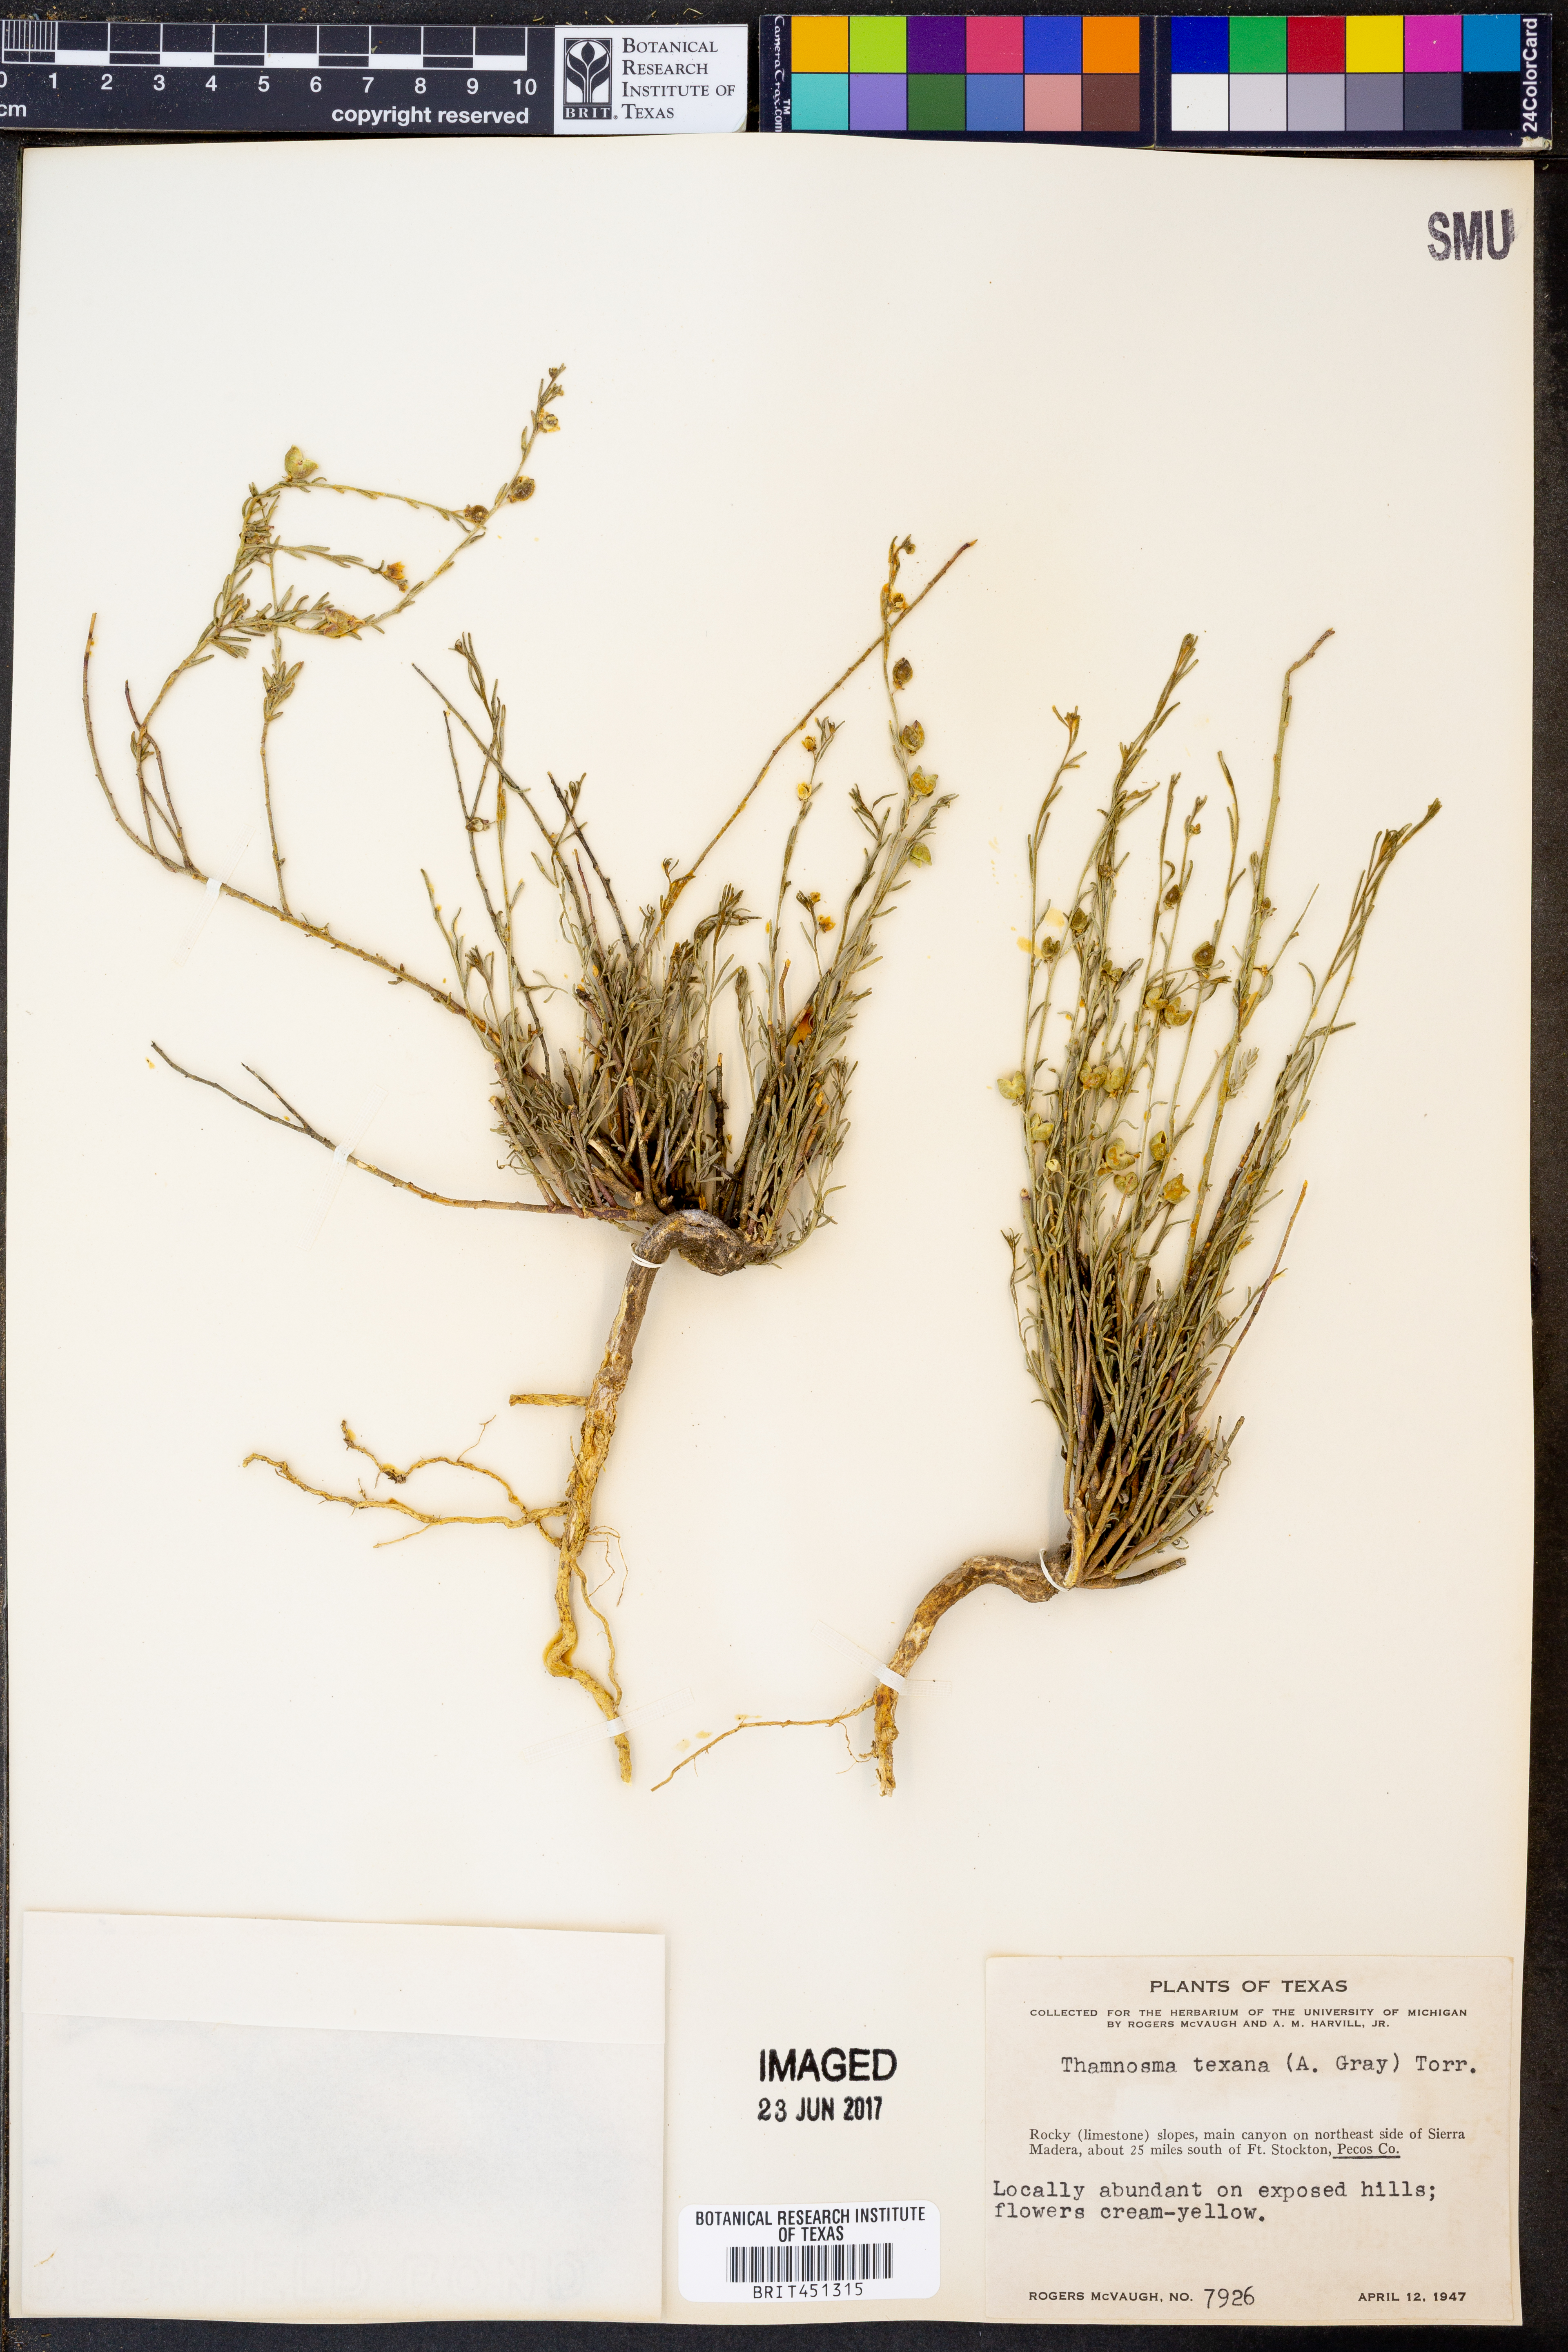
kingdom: Plantae
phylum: Tracheophyta
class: Magnoliopsida
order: Sapindales
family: Rutaceae
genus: Thamnosma
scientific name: Thamnosma texana
